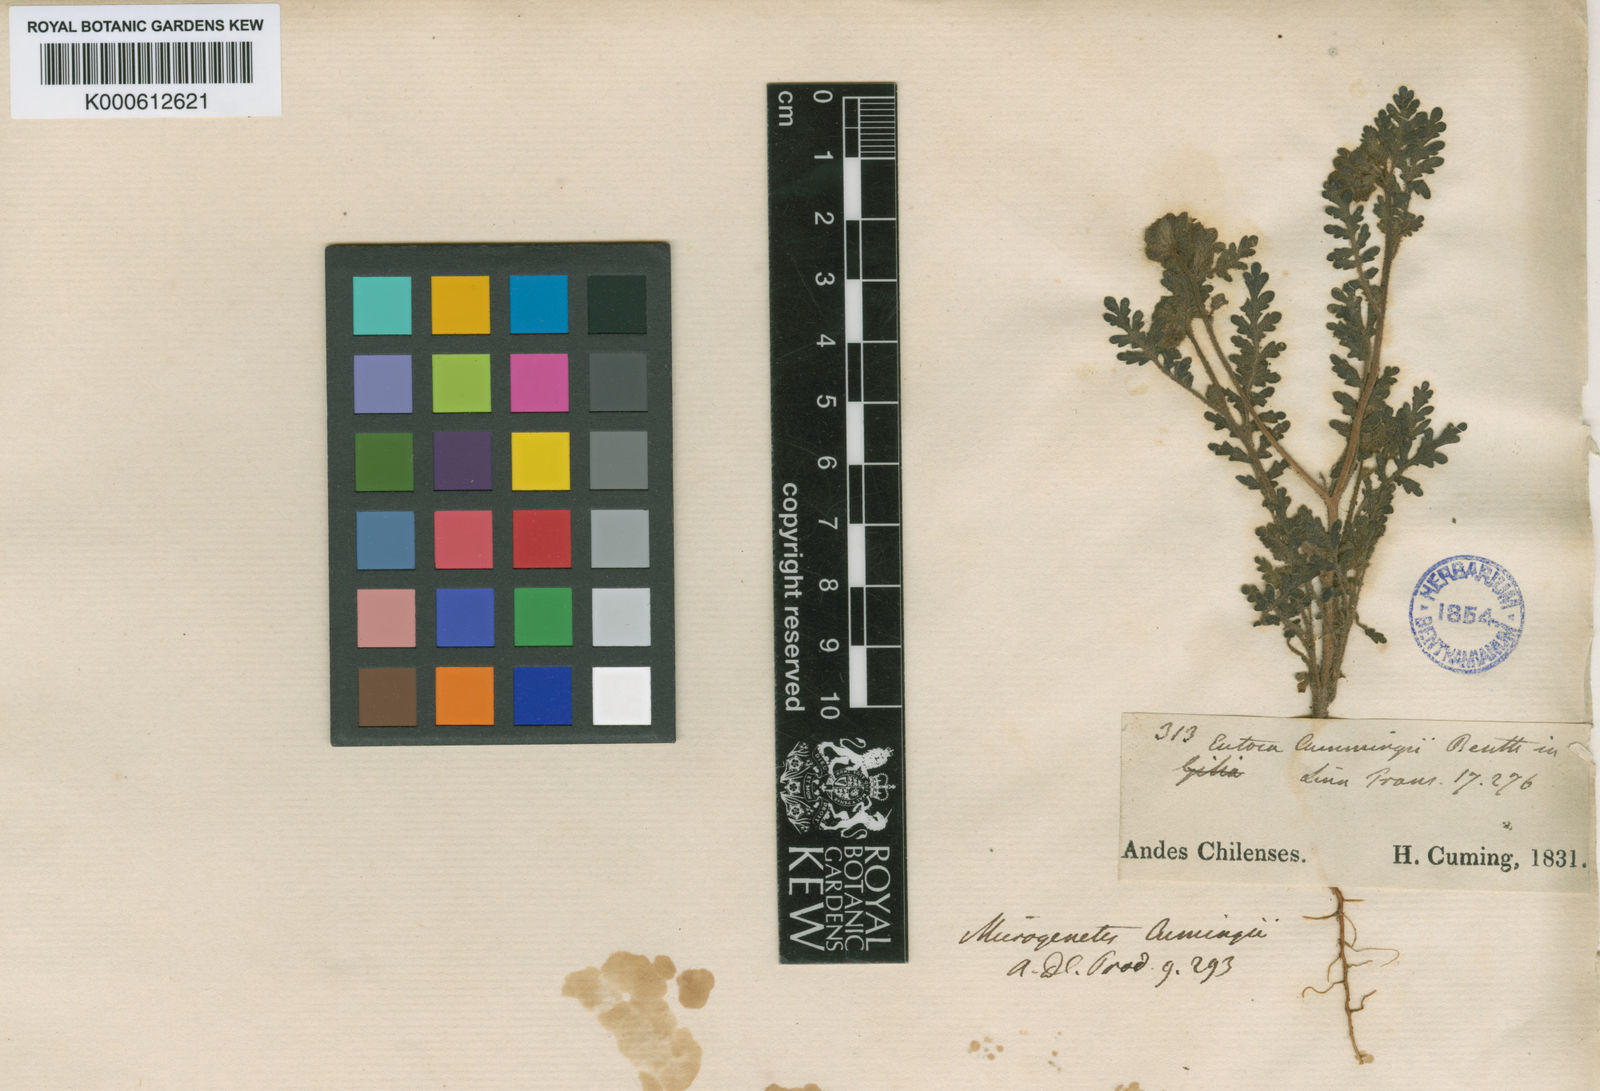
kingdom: Plantae
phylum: Tracheophyta
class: Magnoliopsida
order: Boraginales
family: Hydrophyllaceae
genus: Phacelia
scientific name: Phacelia cumingii
